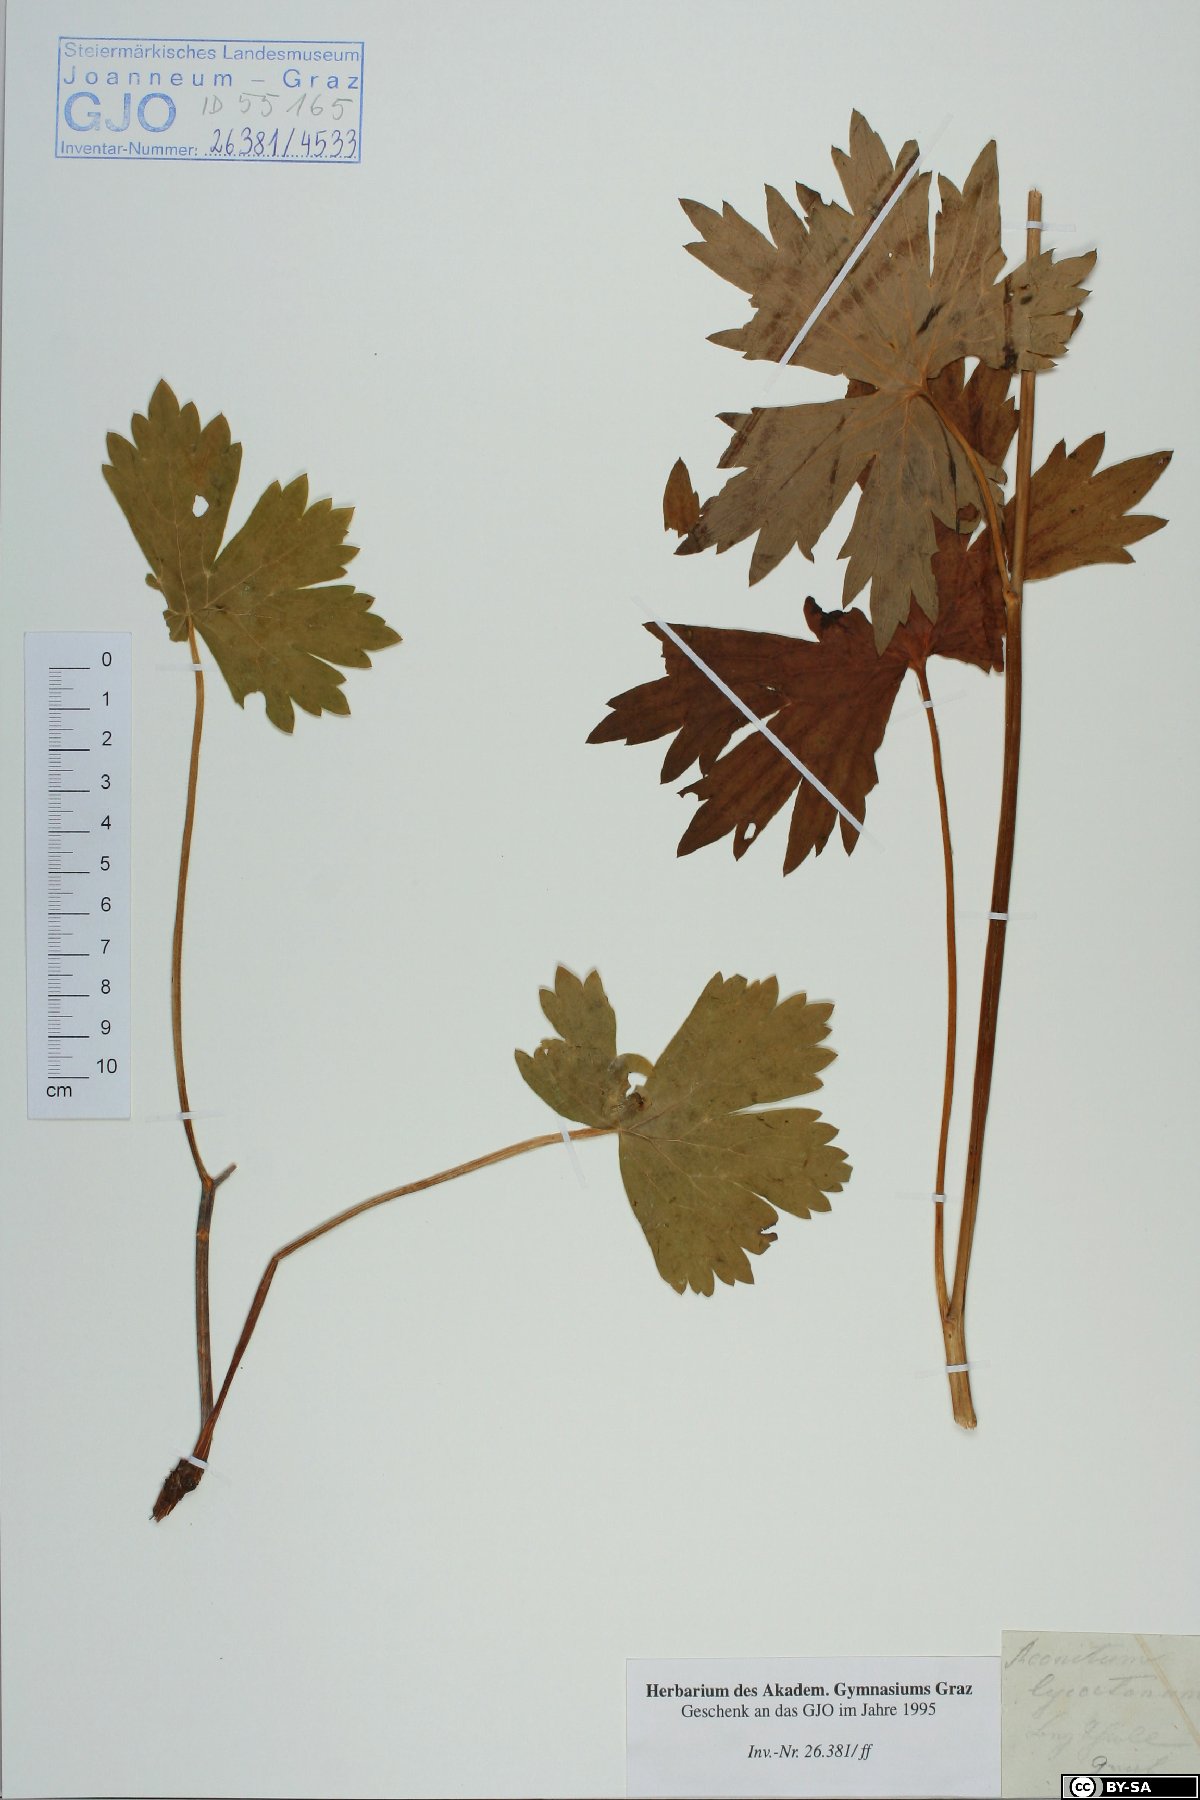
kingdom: Plantae
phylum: Tracheophyta
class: Magnoliopsida
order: Ranunculales
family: Ranunculaceae
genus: Aconitum
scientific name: Aconitum lycoctonum
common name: Wolf's-bane
